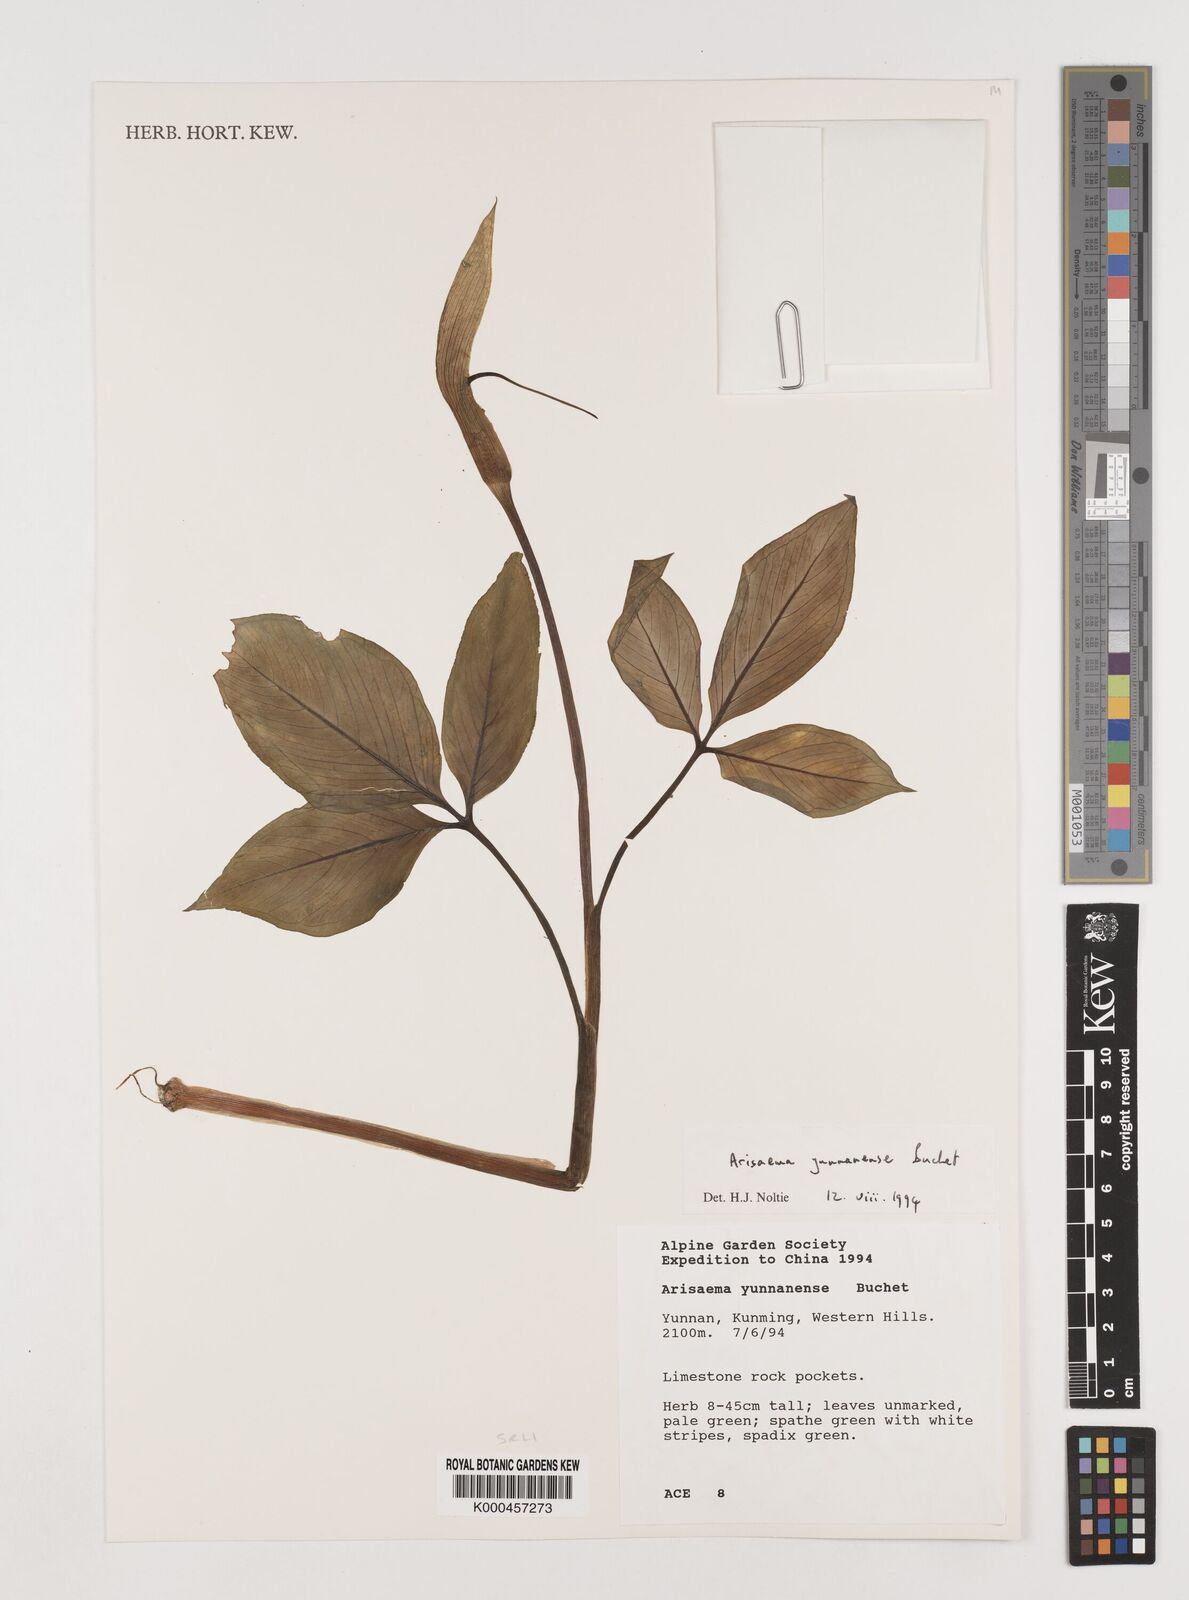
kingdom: Plantae
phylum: Tracheophyta
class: Liliopsida
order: Alismatales
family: Araceae
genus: Arisaema
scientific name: Arisaema yunnanense
